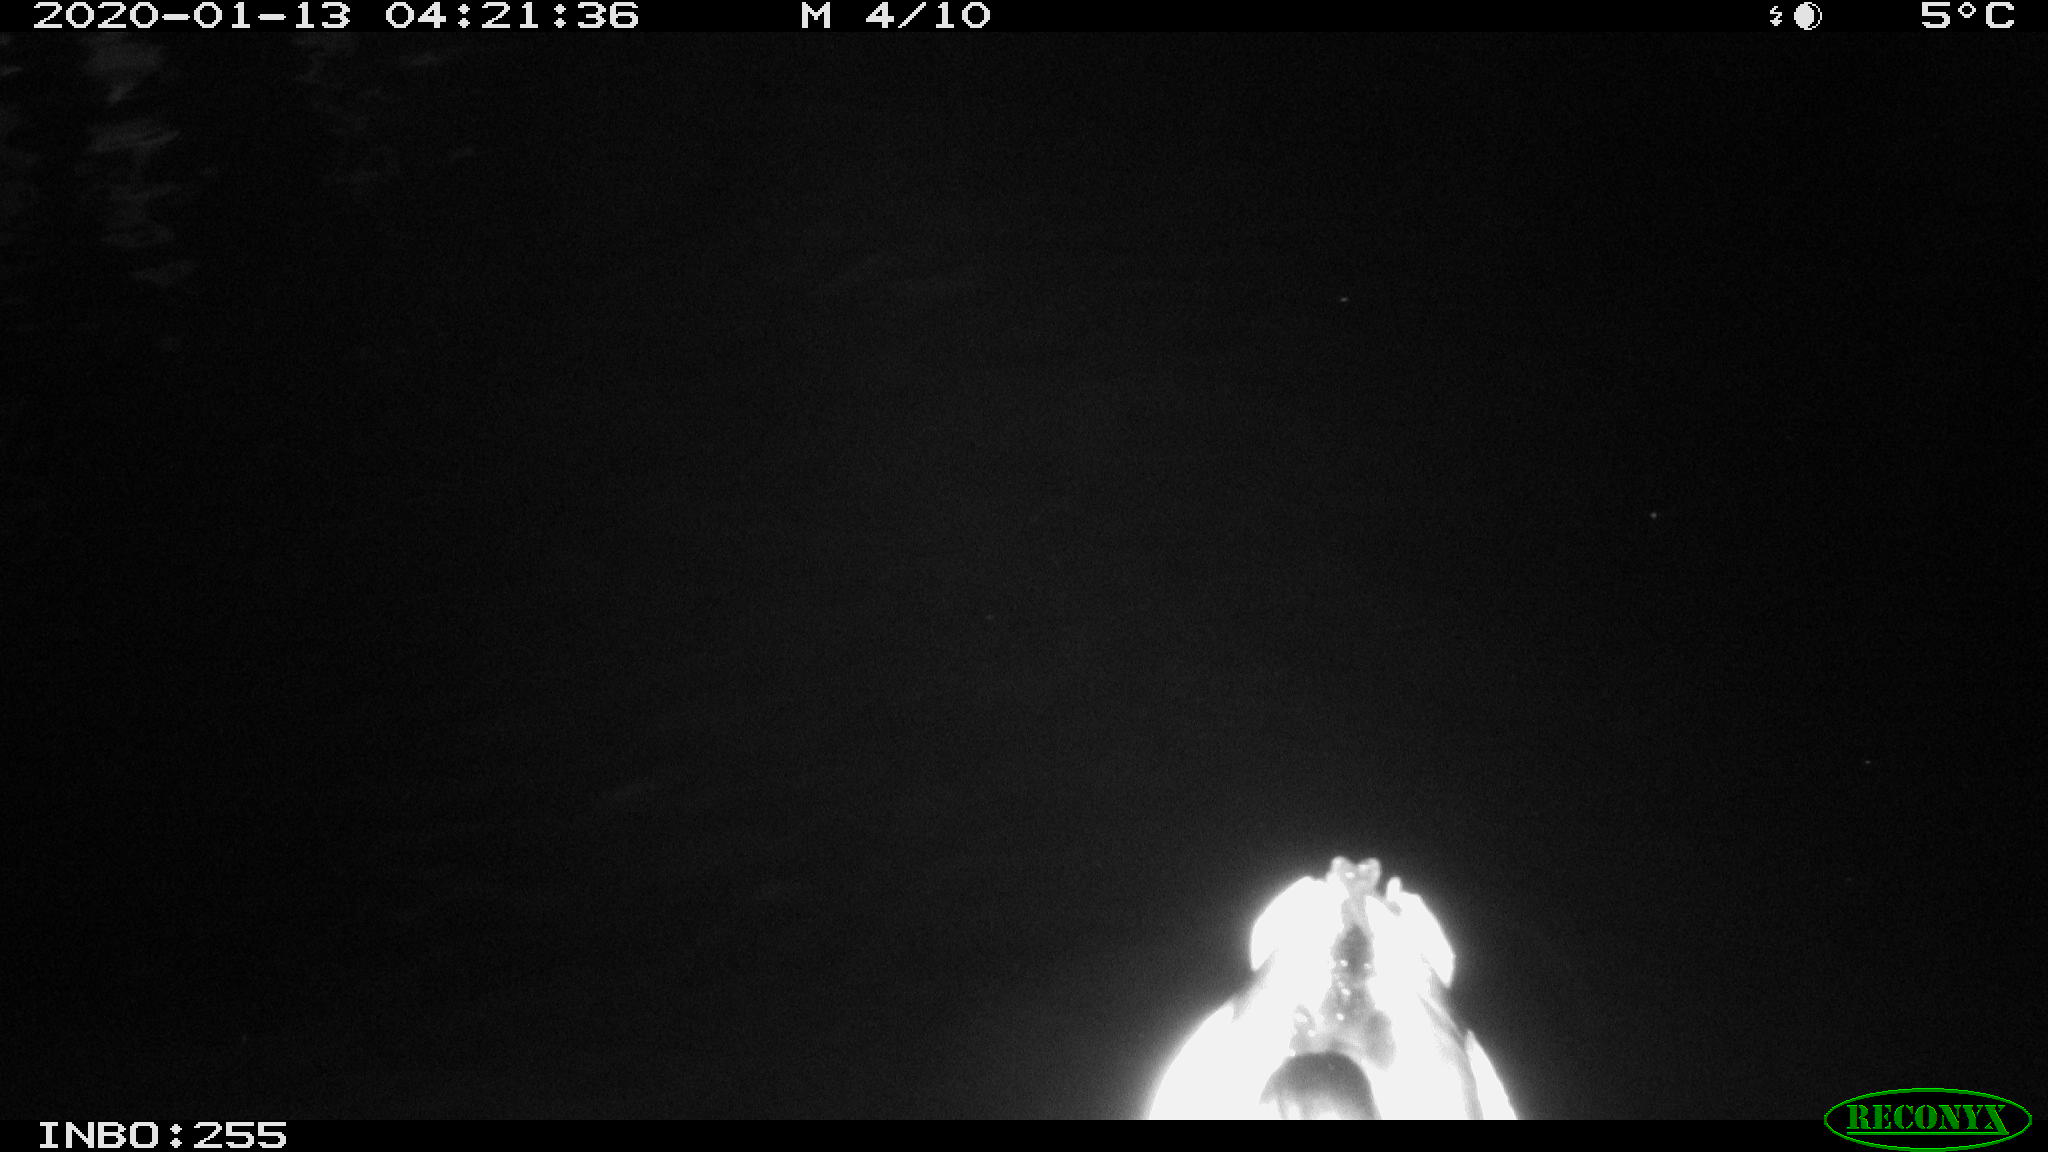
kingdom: Animalia
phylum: Chordata
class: Aves
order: Anseriformes
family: Anatidae
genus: Anas
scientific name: Anas platyrhynchos
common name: Mallard
